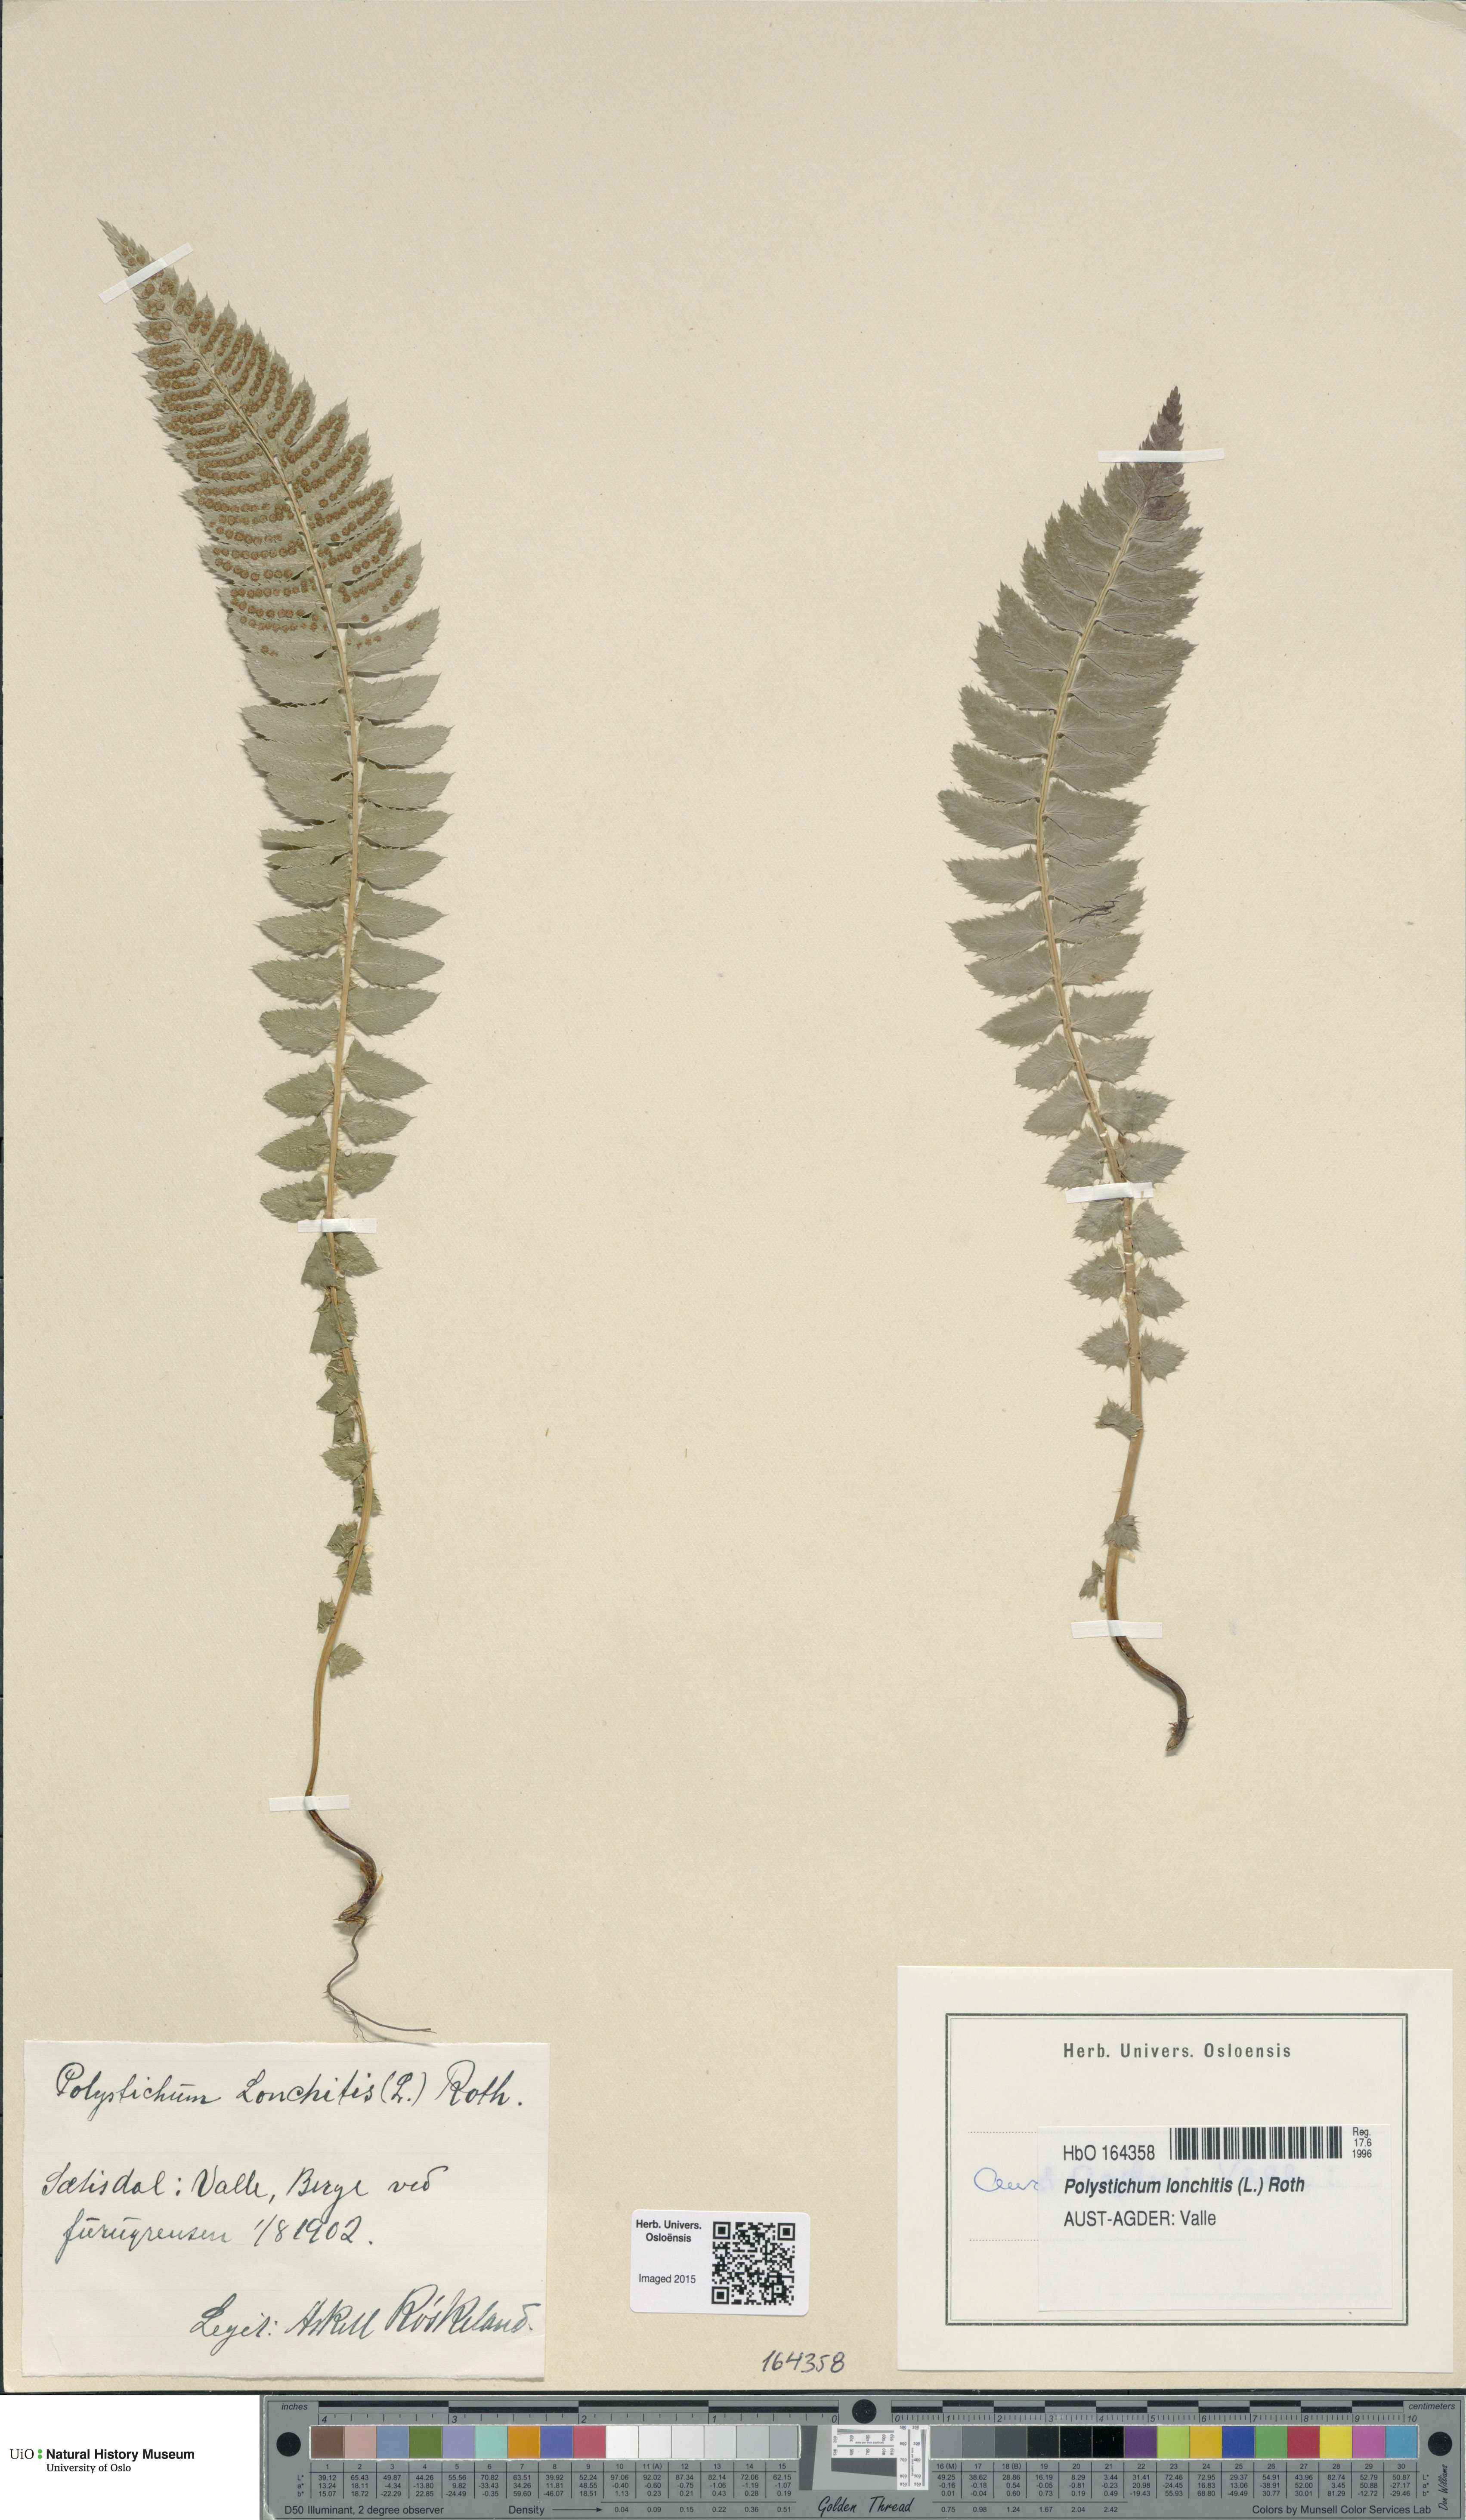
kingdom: Plantae
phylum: Tracheophyta
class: Polypodiopsida
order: Polypodiales
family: Dryopteridaceae
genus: Polystichum
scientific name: Polystichum lonchitis
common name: Holly fern
